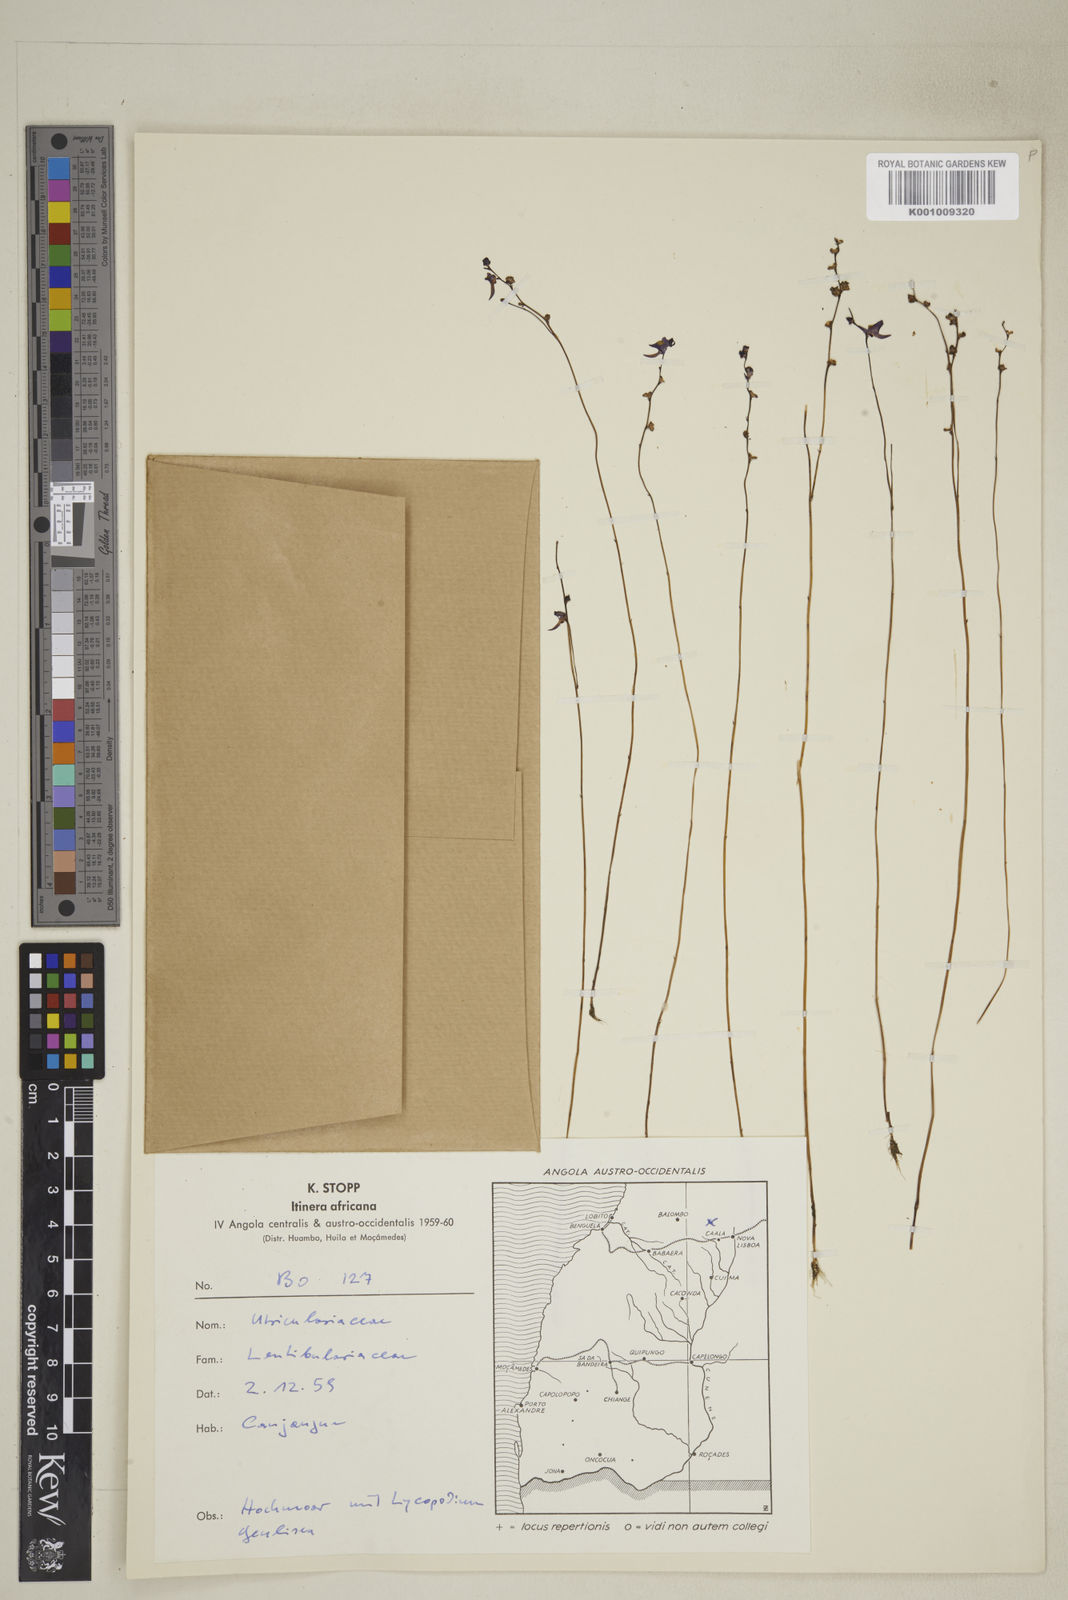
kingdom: Plantae
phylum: Tracheophyta
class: Magnoliopsida
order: Lamiales
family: Lentibulariaceae
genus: Utricularia
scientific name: Utricularia welwitschii
